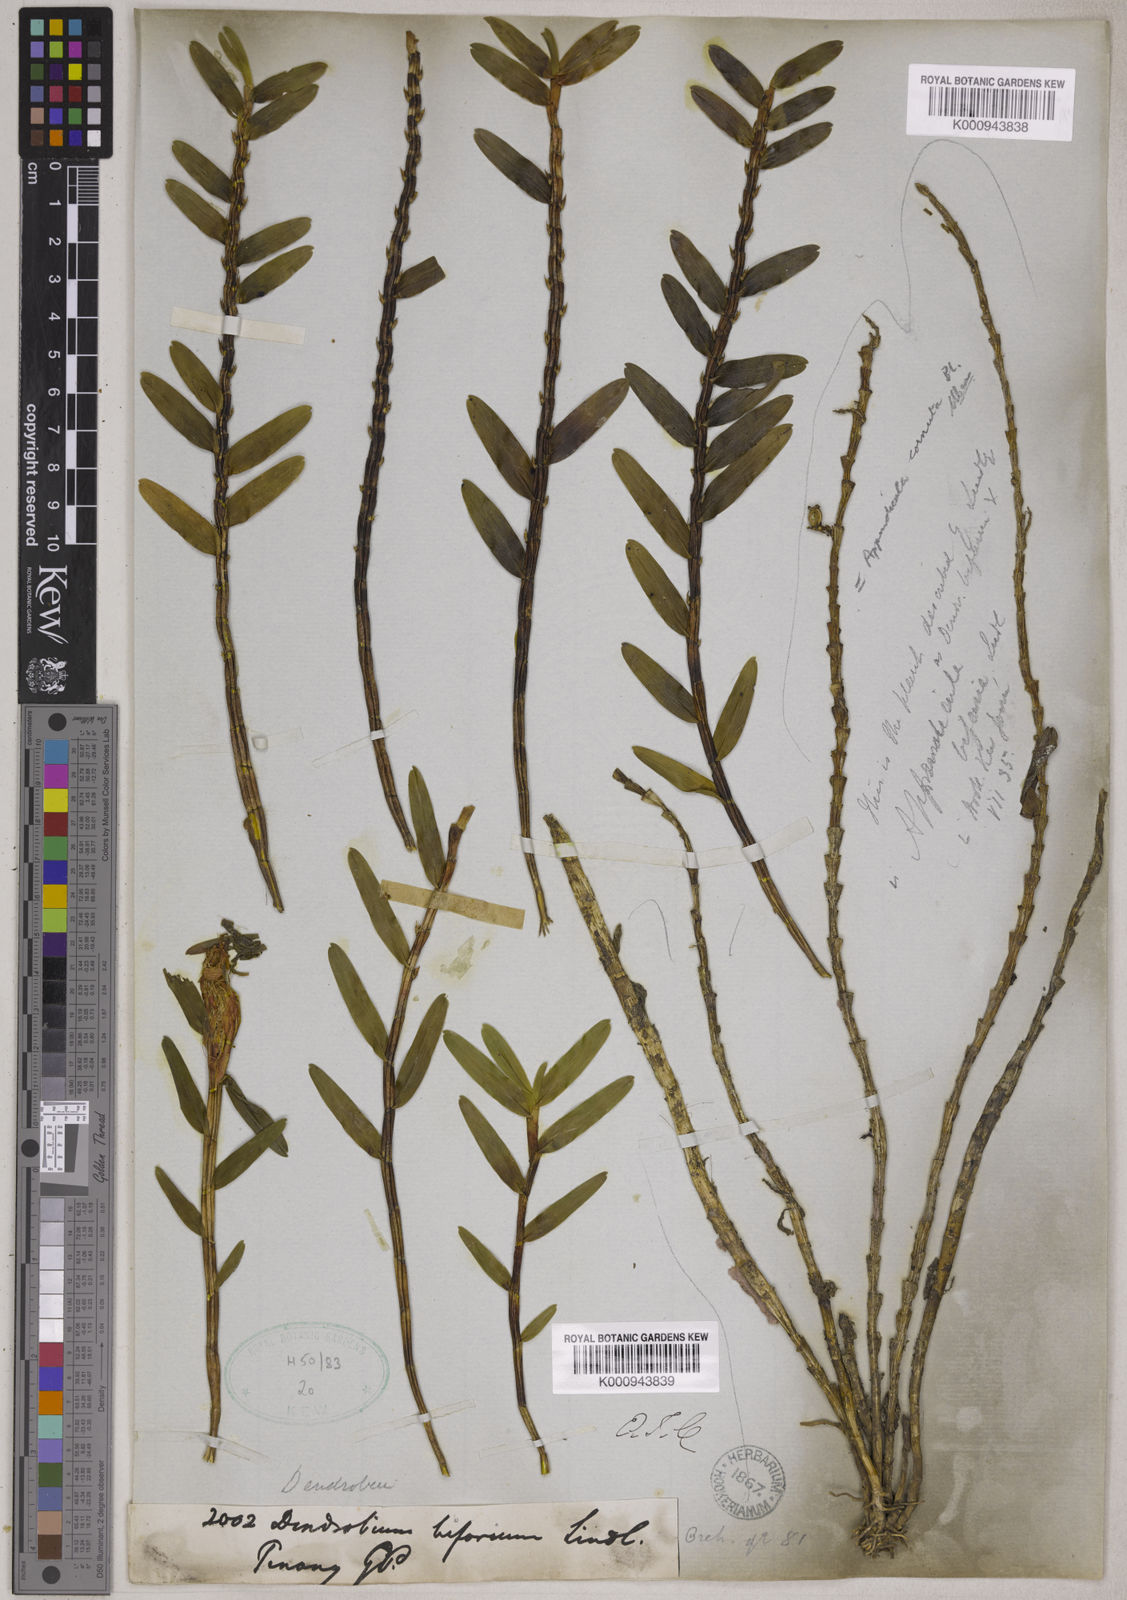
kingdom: Plantae
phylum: Tracheophyta
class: Liliopsida
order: Asparagales
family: Orchidaceae
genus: Appendicula
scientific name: Appendicula cornuta
